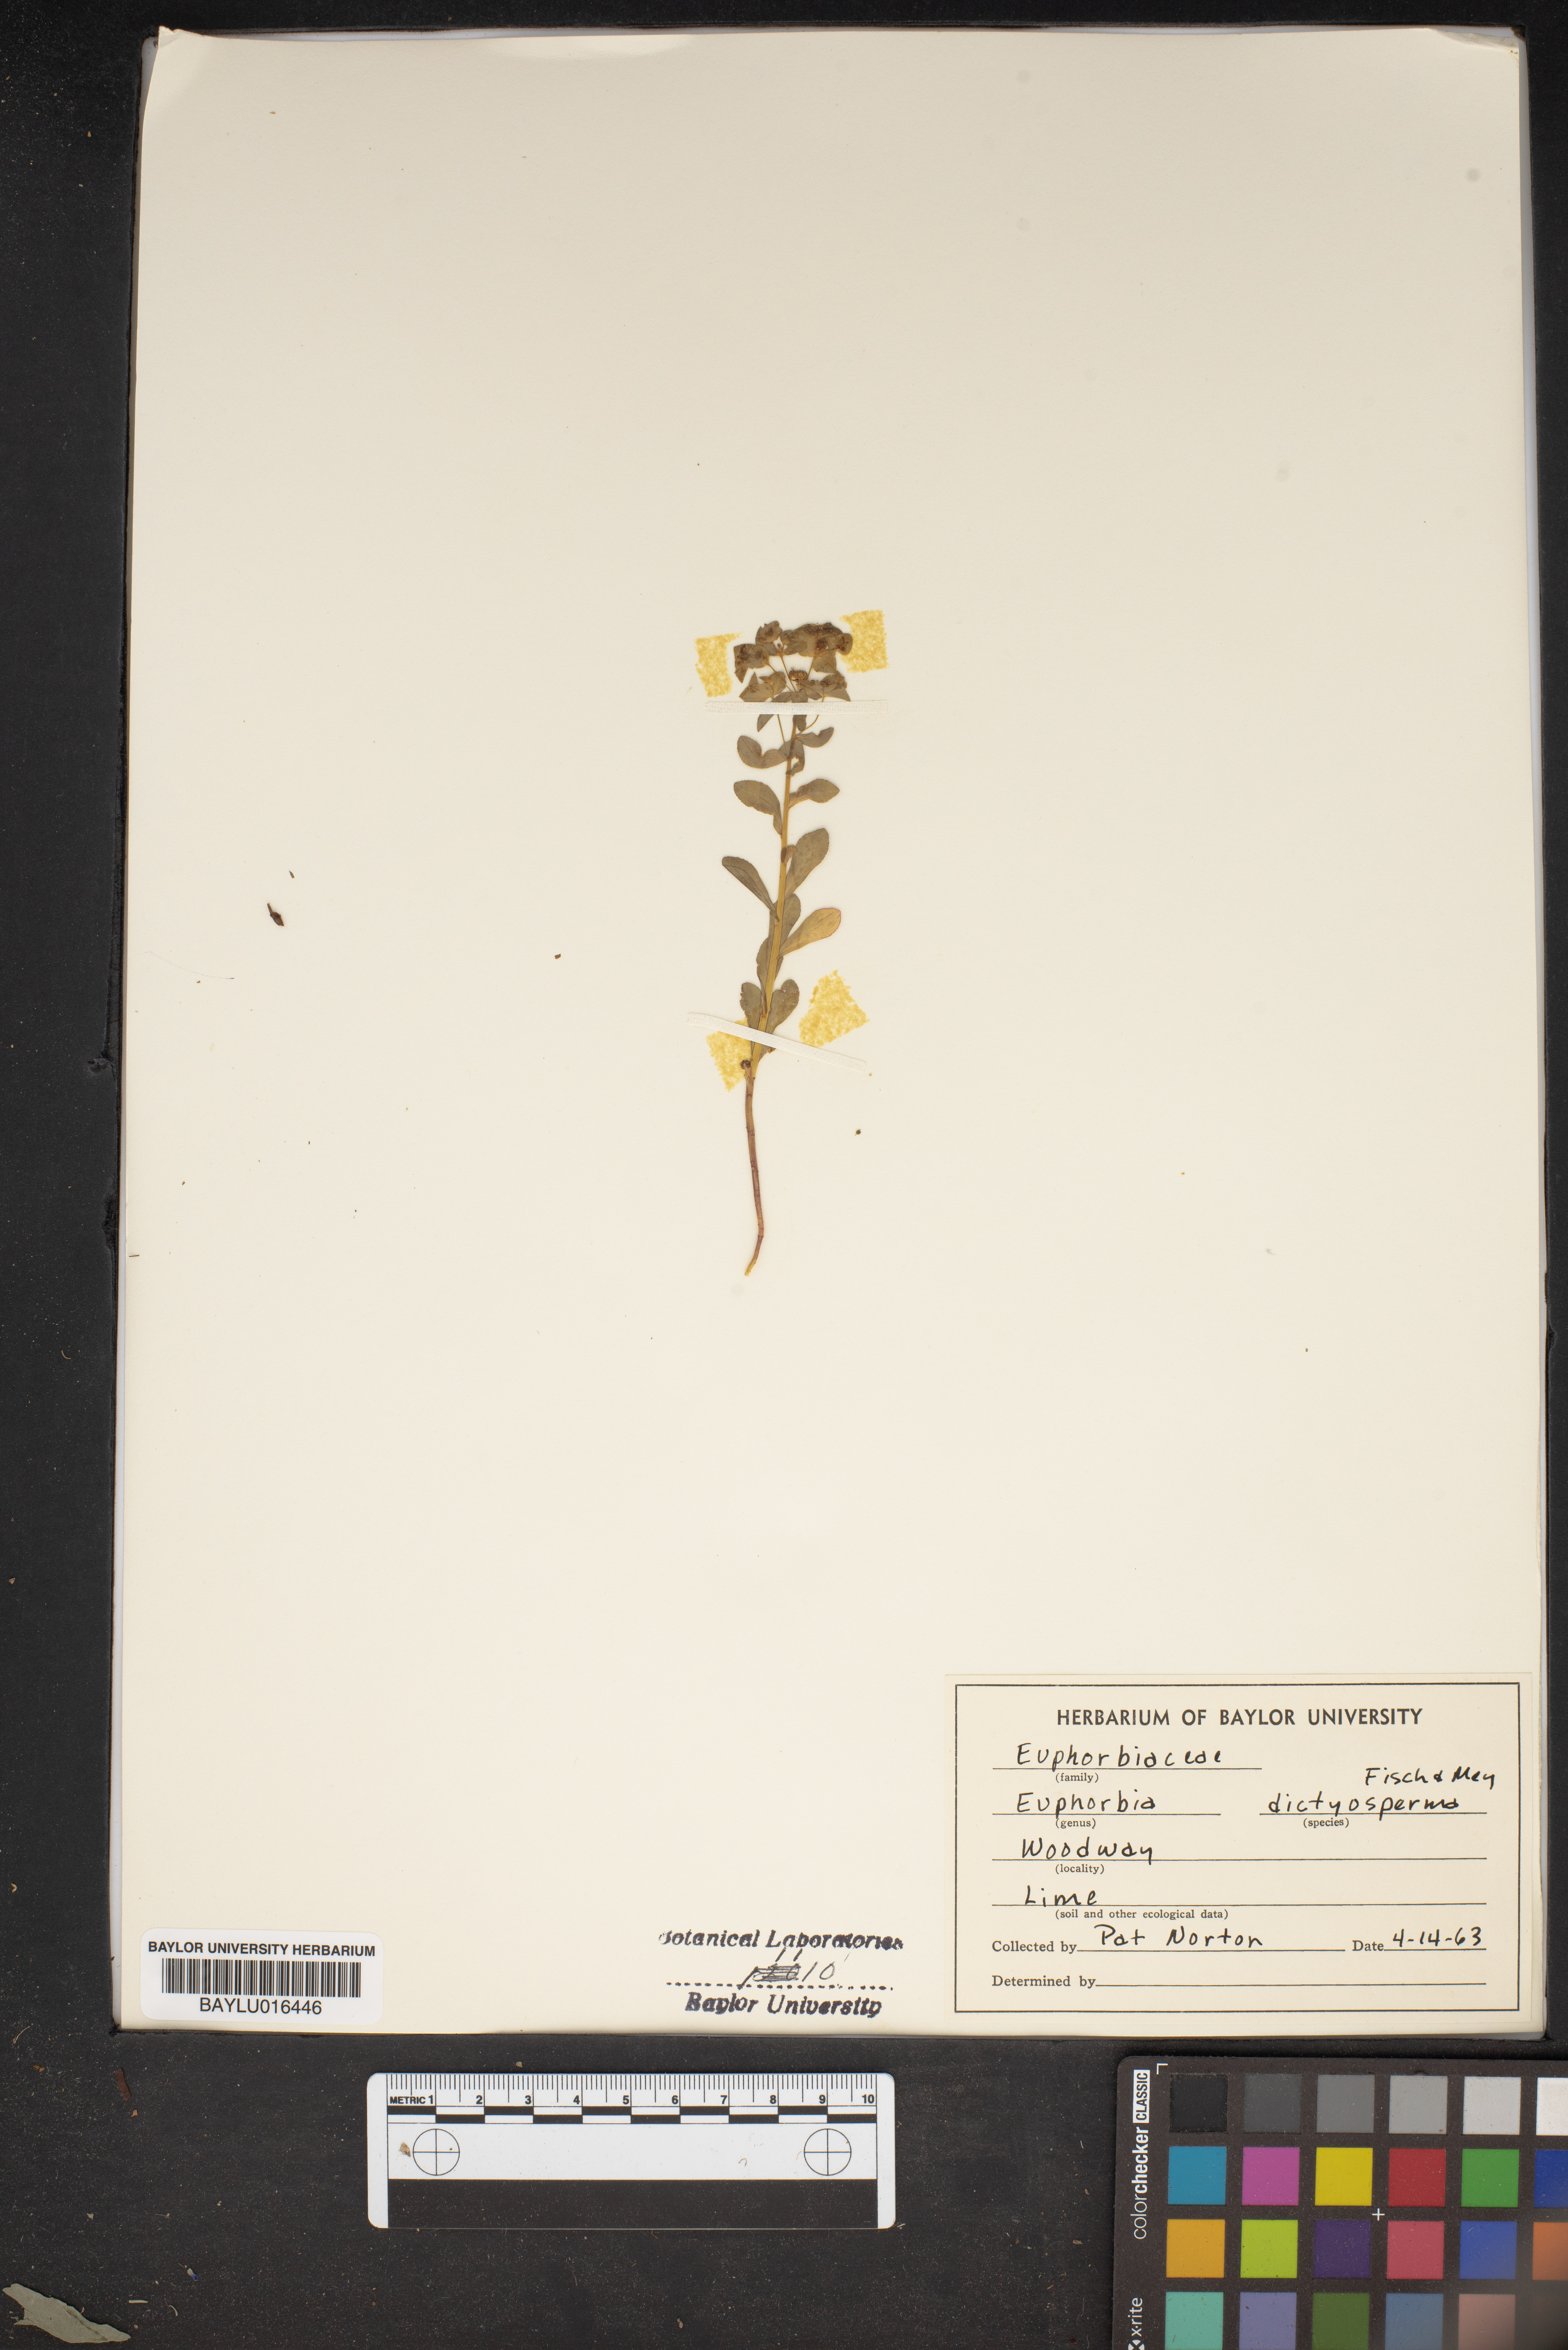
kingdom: Plantae
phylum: Tracheophyta
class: Magnoliopsida
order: Malpighiales
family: Euphorbiaceae
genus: Euphorbia
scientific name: Euphorbia spathulata
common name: Blunt spurge
